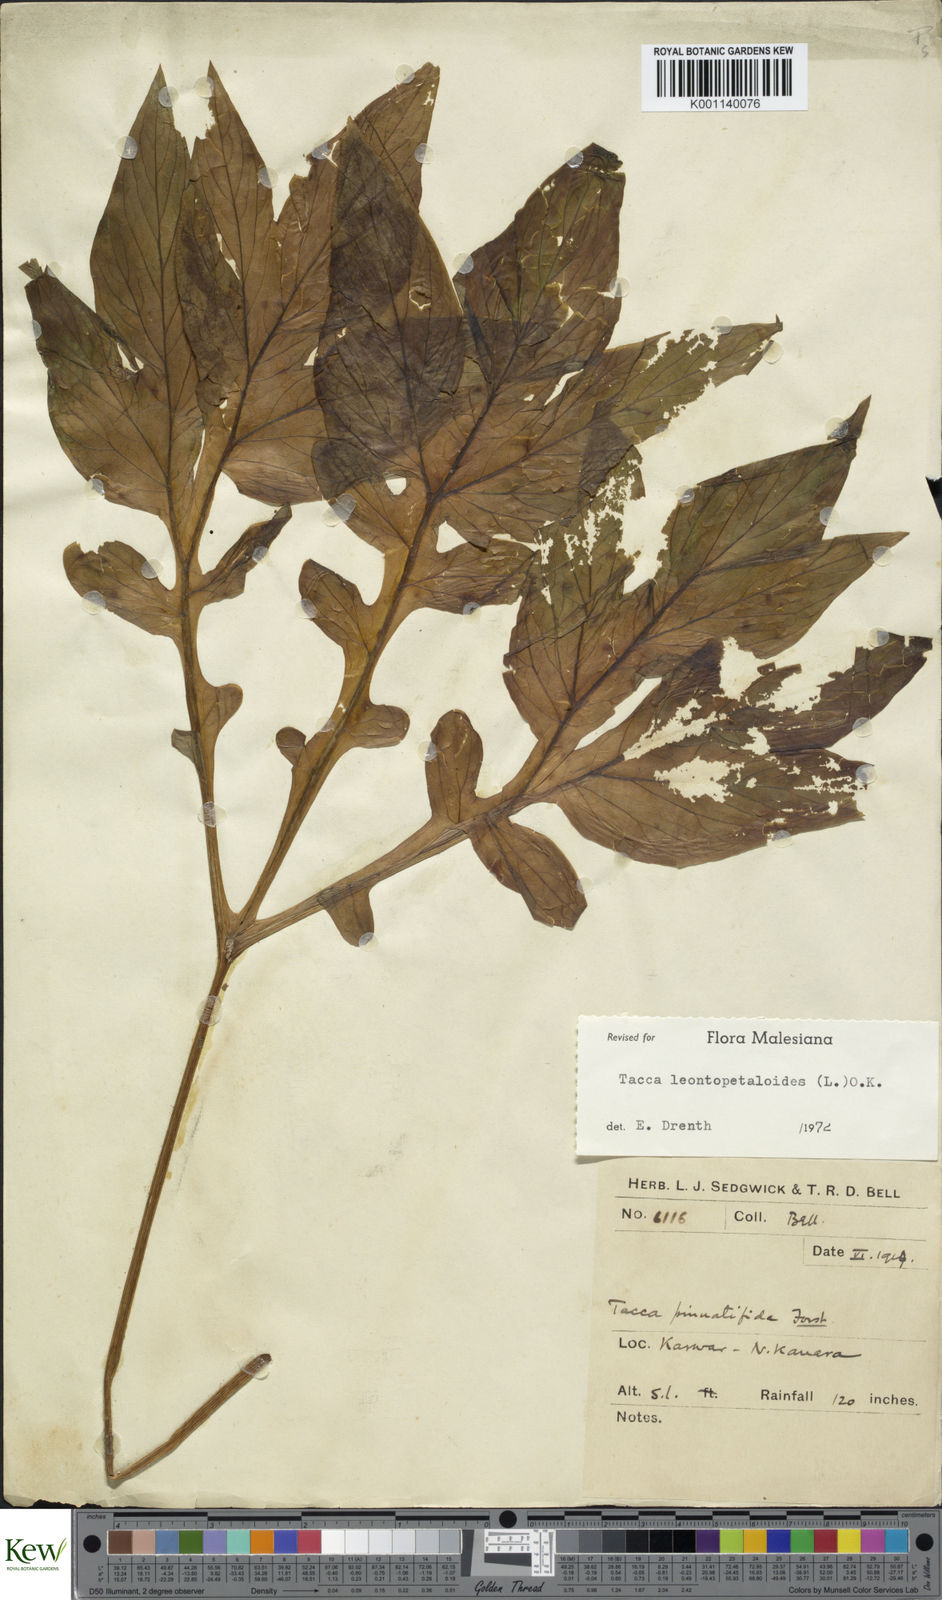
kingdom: Plantae
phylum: Tracheophyta
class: Liliopsida
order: Dioscoreales
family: Dioscoreaceae
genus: Tacca
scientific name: Tacca leontopetaloides
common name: Arrowroot
